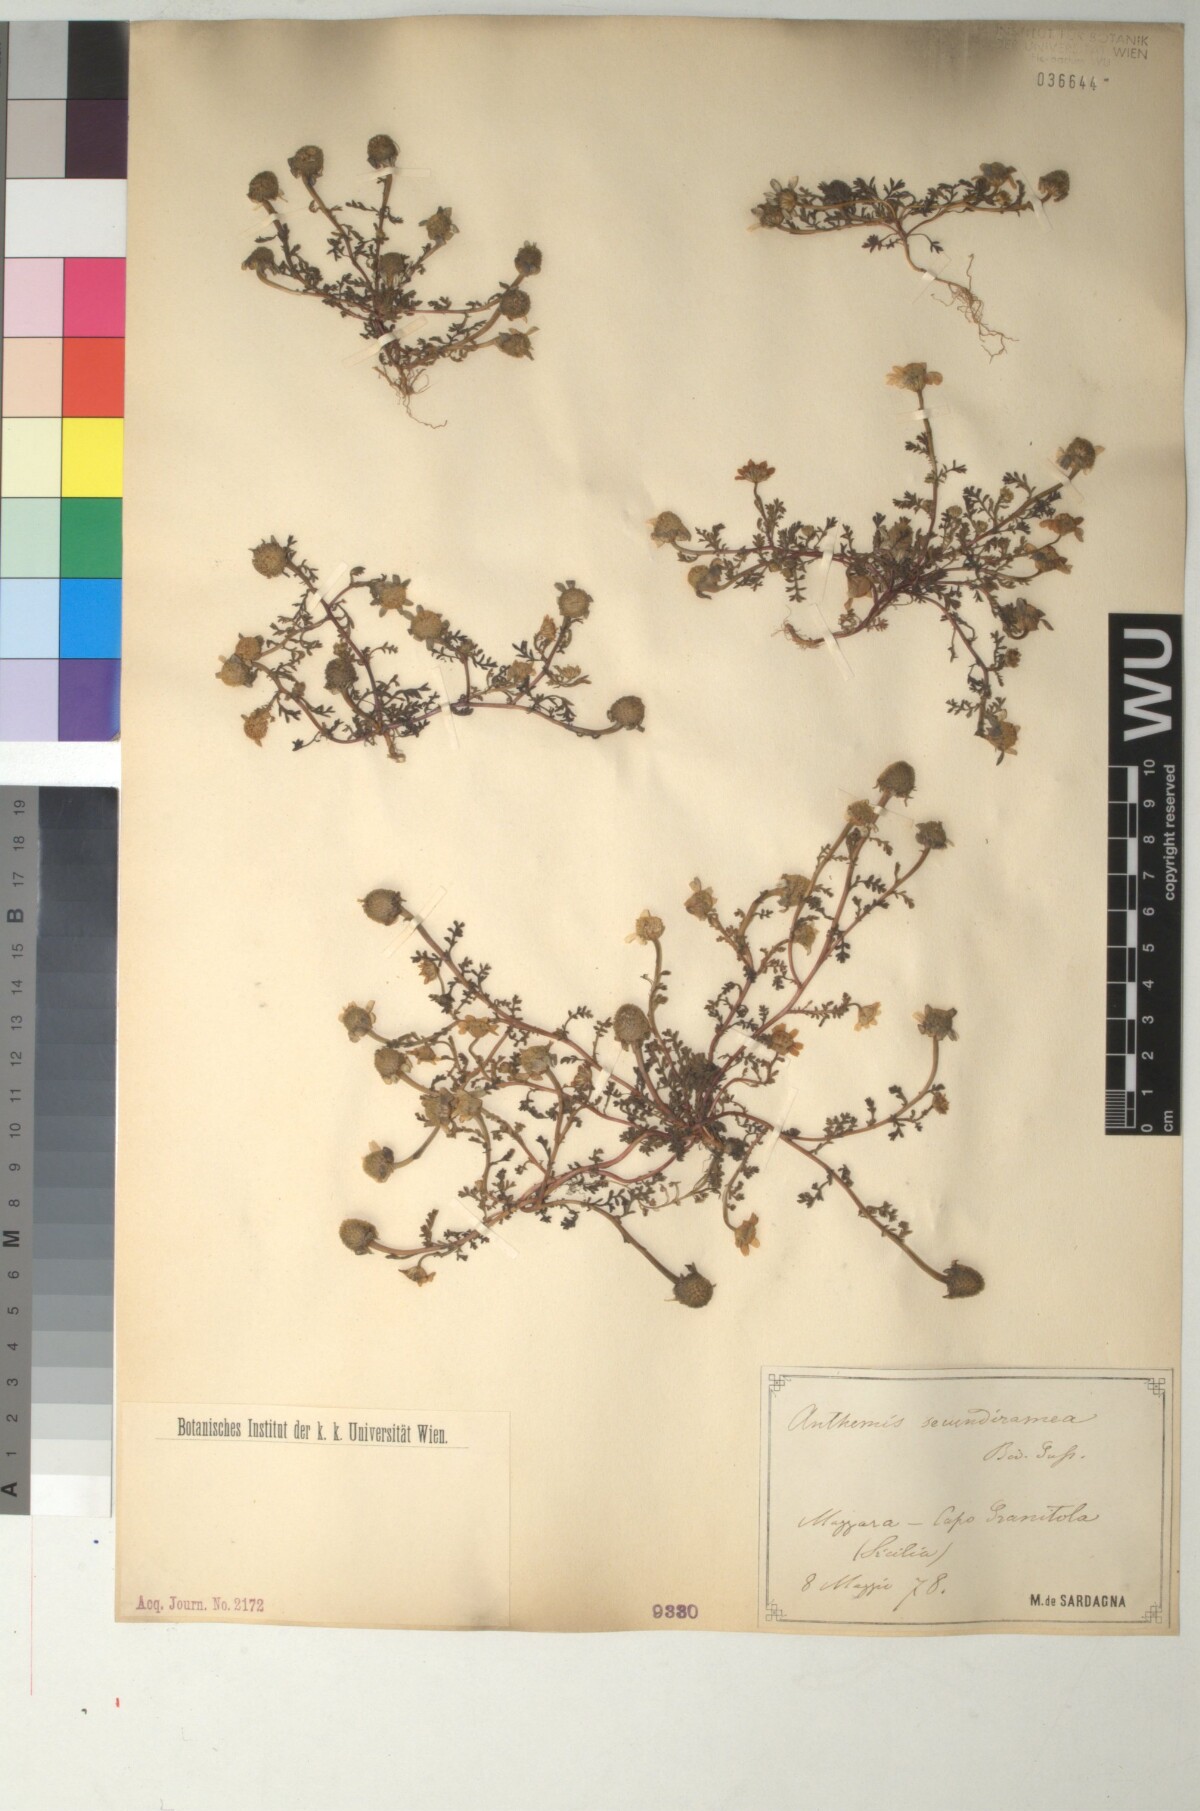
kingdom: Plantae
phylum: Tracheophyta
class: Magnoliopsida
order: Asterales
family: Asteraceae
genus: Anthemis
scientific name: Anthemis secundiramea
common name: Prostrate chamomile
